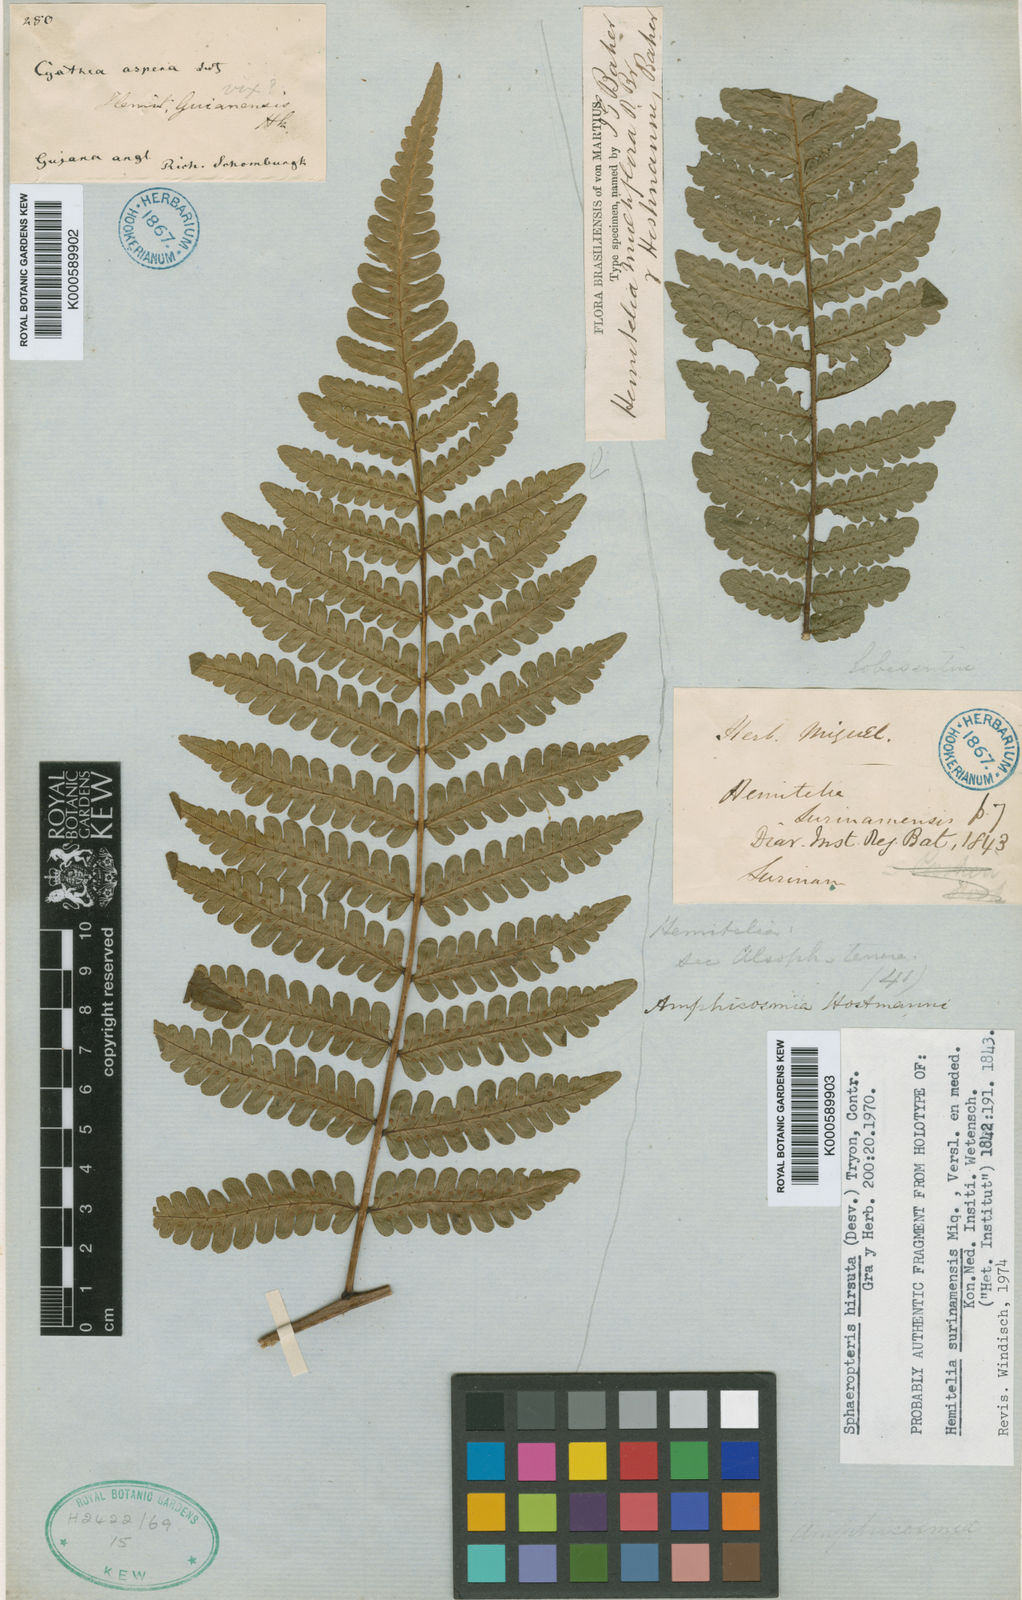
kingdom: Plantae
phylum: Tracheophyta
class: Polypodiopsida
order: Cyatheales
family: Cyatheaceae
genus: Cyathea
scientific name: Cyathea surinamensis
